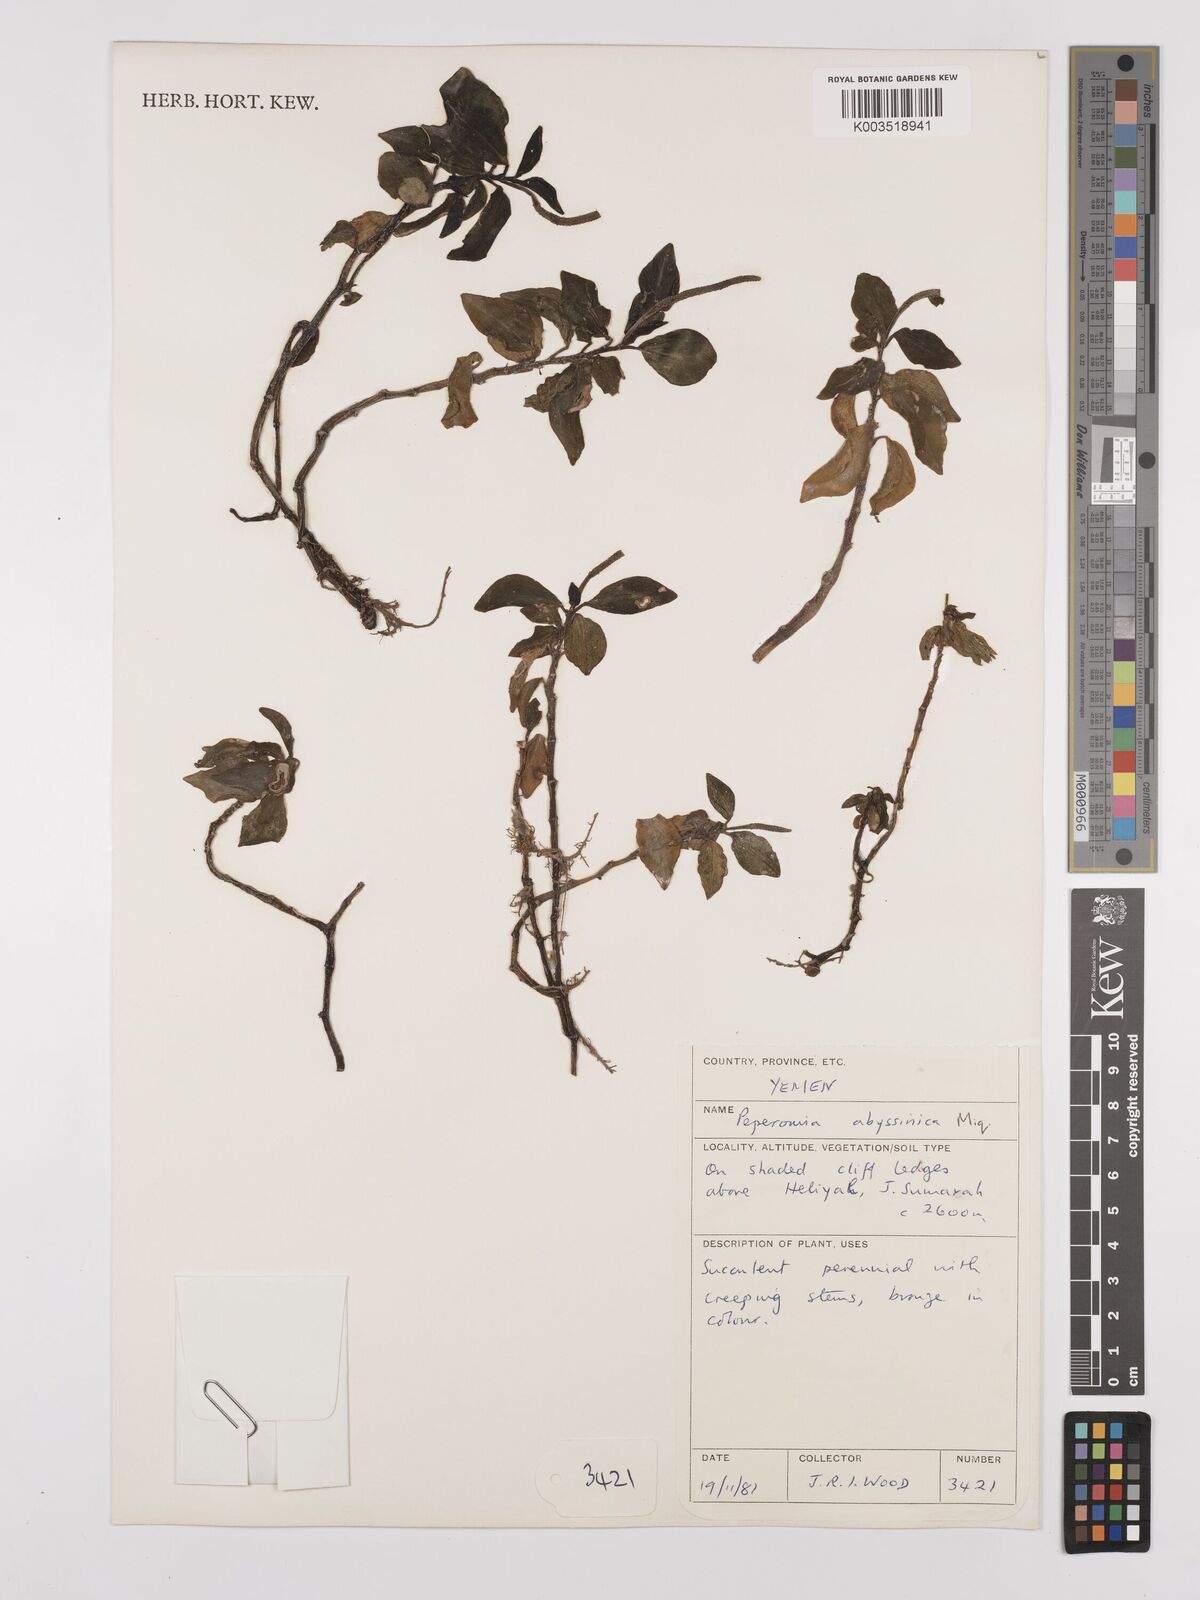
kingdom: Plantae
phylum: Tracheophyta
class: Magnoliopsida
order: Piperales
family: Piperaceae
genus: Peperomia
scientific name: Peperomia abyssinica
